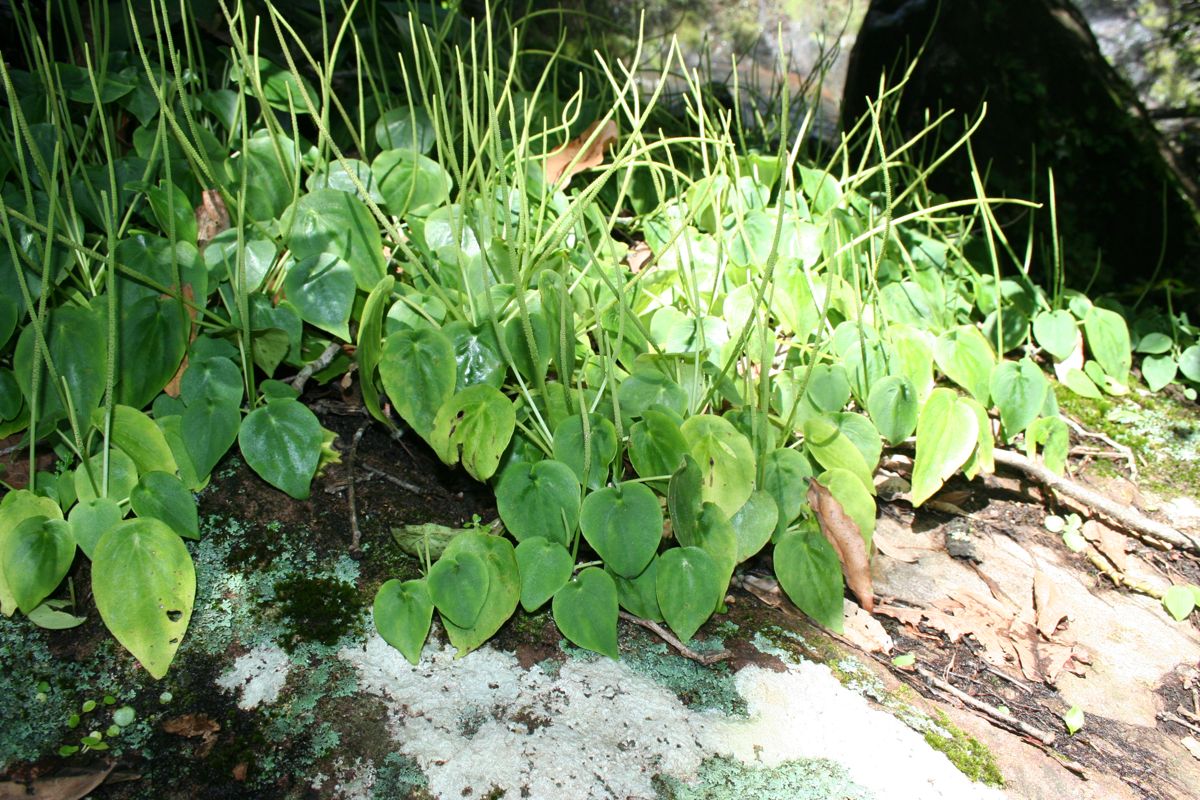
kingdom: Plantae
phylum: Tracheophyta
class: Magnoliopsida
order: Piperales
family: Piperaceae
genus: Peperomia
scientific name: Peperomia
